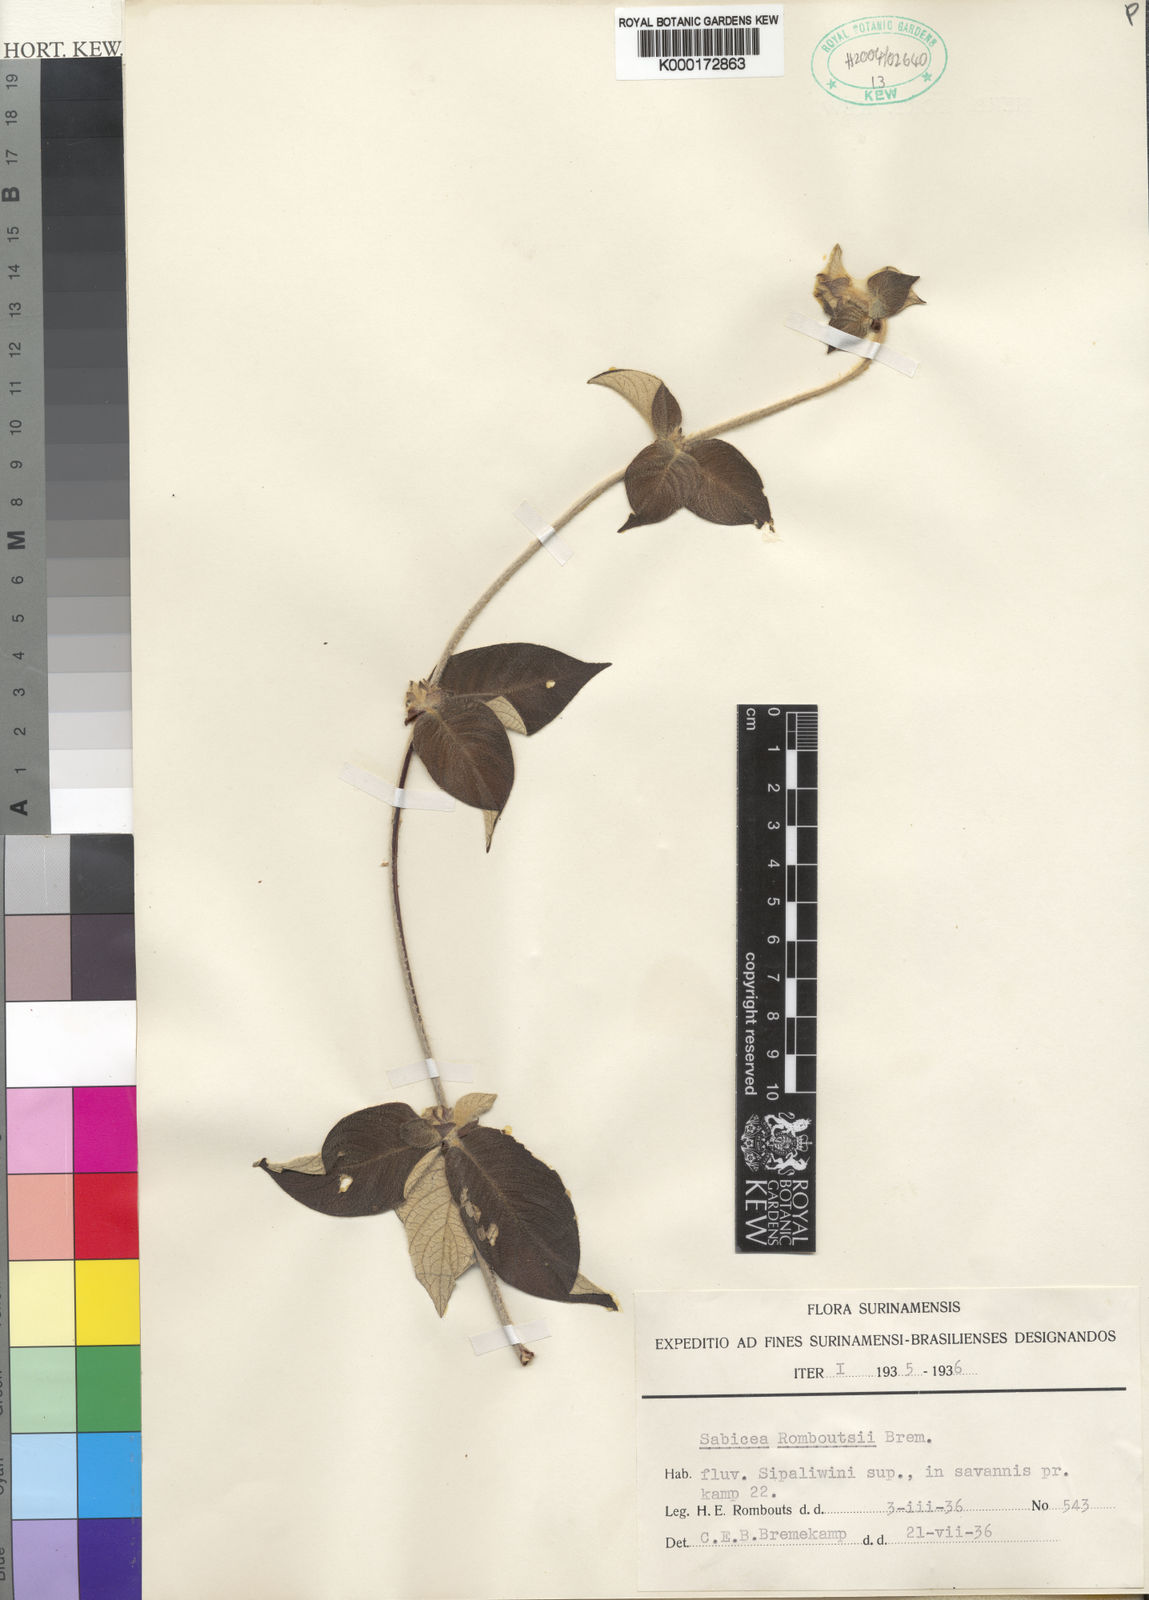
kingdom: Plantae
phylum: Tracheophyta
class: Magnoliopsida
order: Gentianales
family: Rubiaceae
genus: Sabicea
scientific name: Sabicea romboutsii
